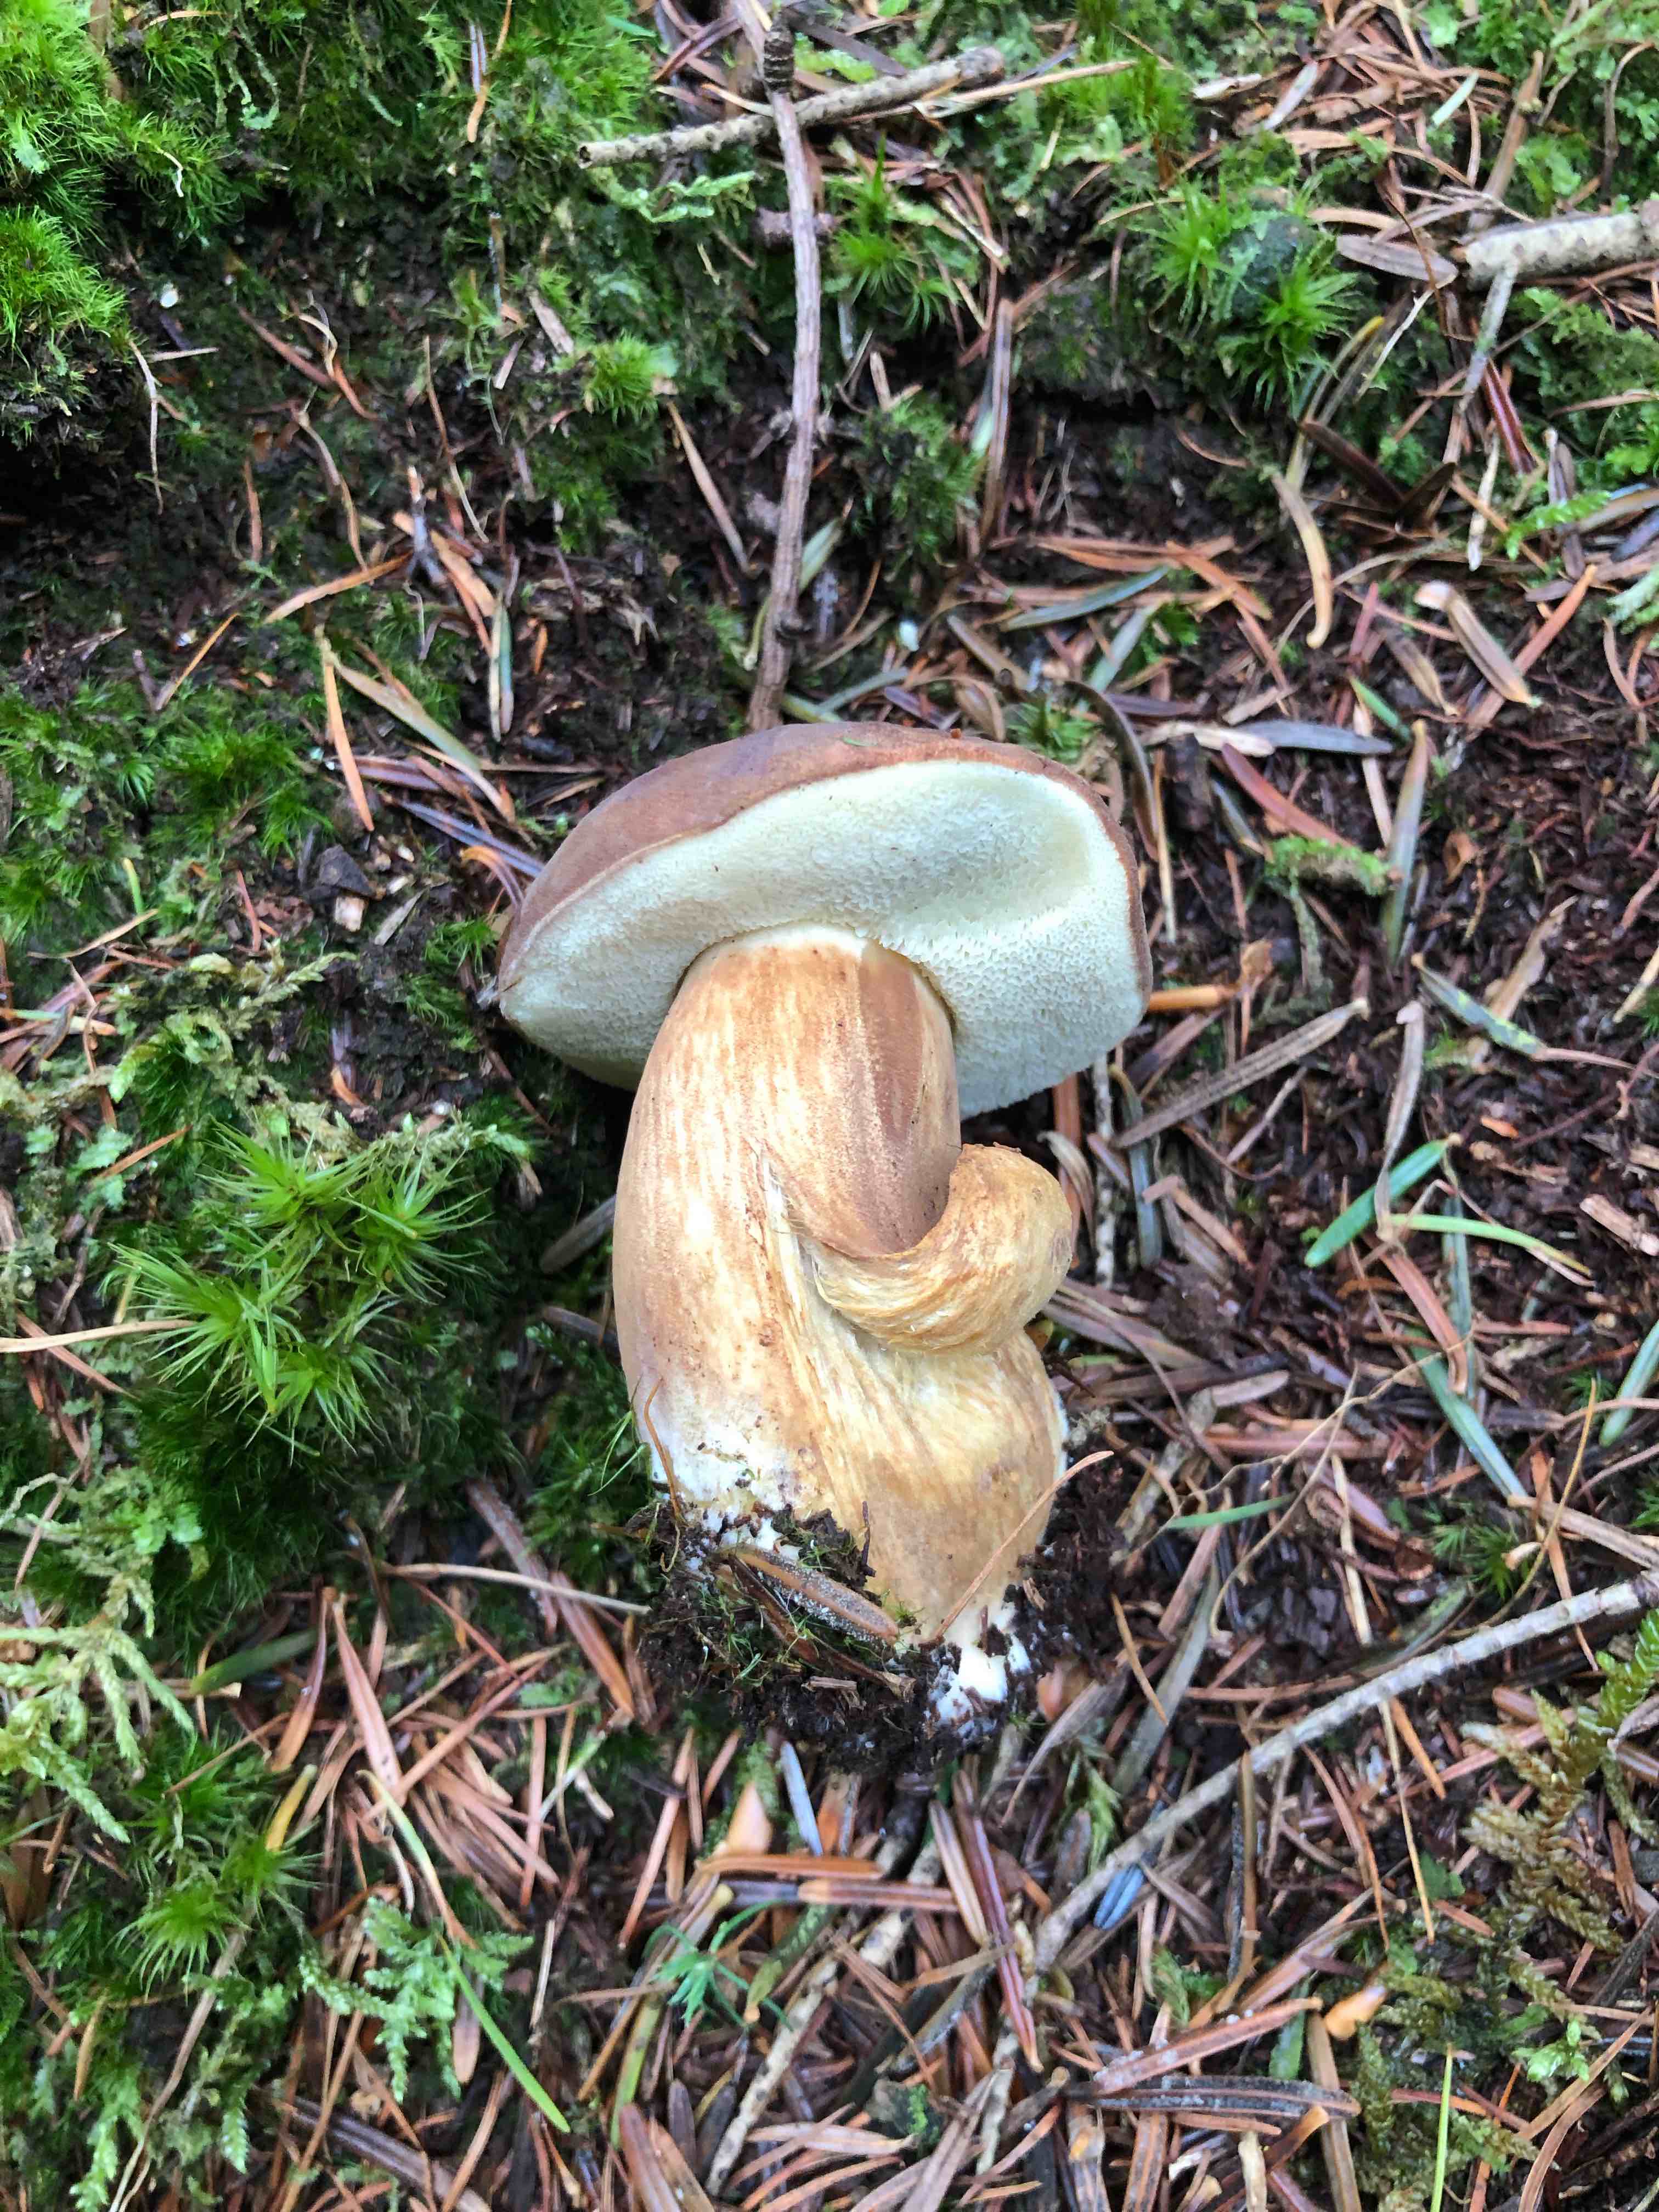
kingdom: Fungi
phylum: Basidiomycota
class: Agaricomycetes
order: Boletales
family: Boletaceae
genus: Imleria
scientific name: Imleria badia
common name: brunstokket rørhat
